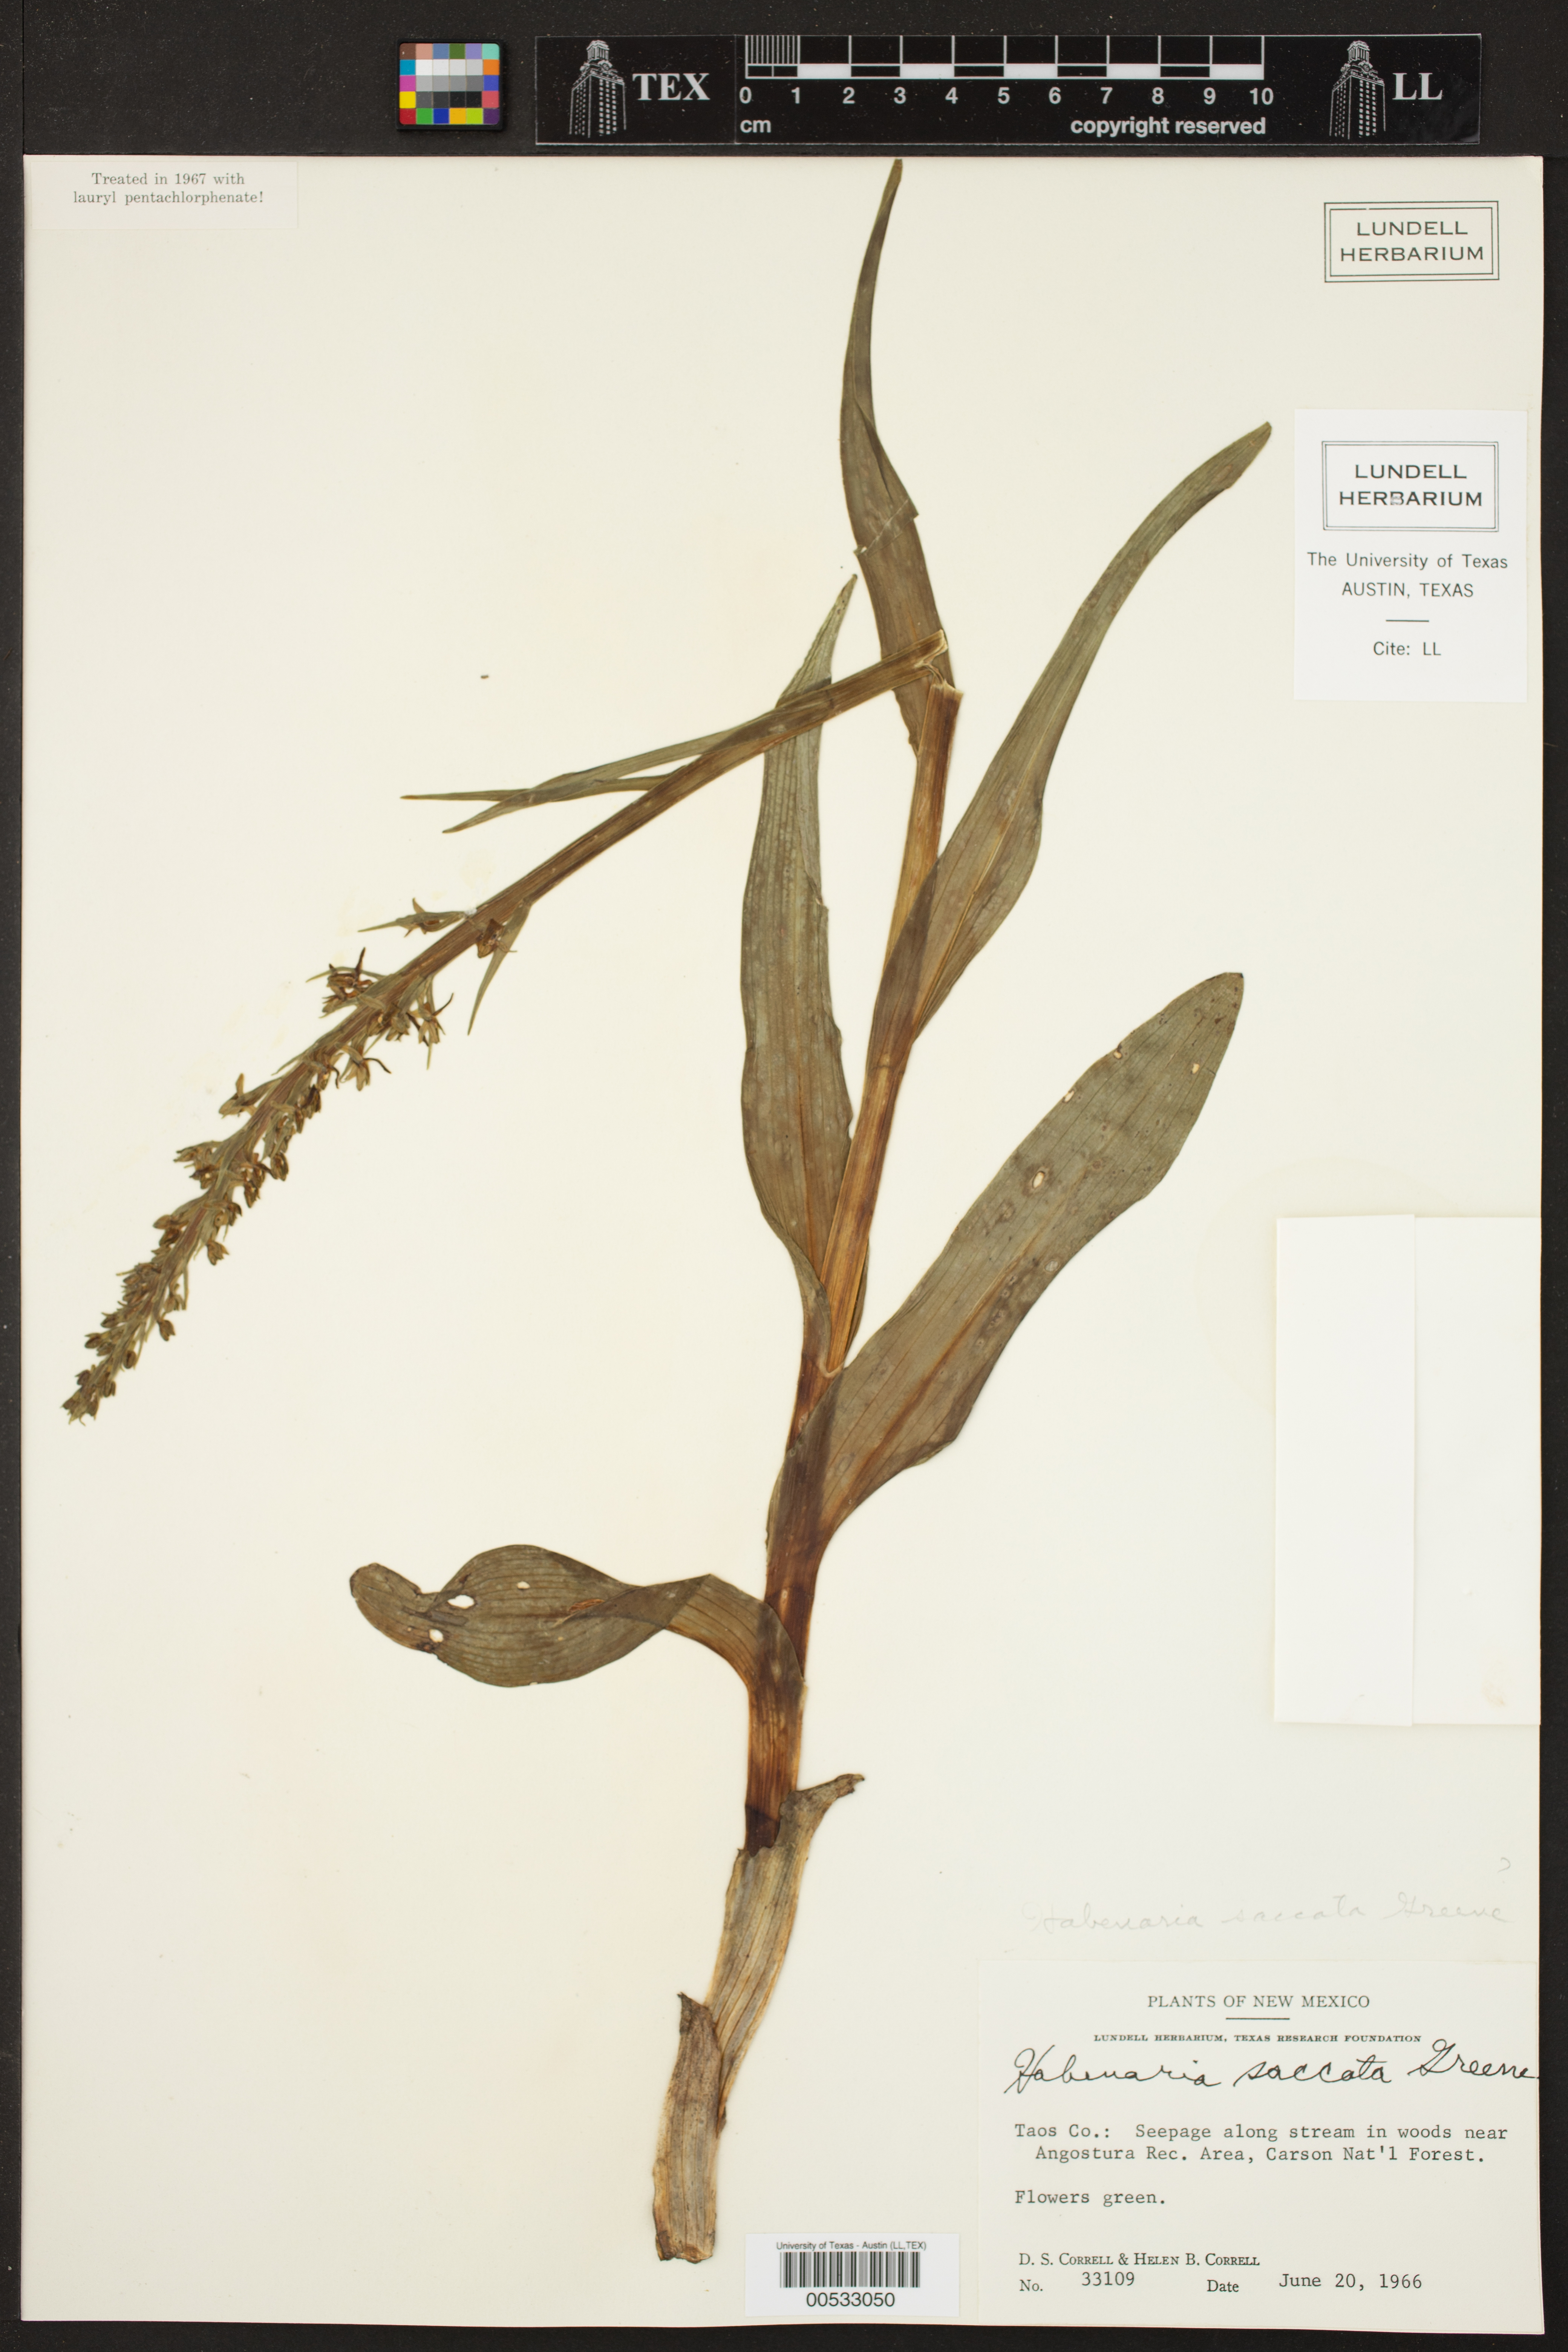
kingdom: Plantae
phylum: Tracheophyta
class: Liliopsida
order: Asparagales
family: Orchidaceae
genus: Platanthera
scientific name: Platanthera stricta
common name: Slender bog orchid
